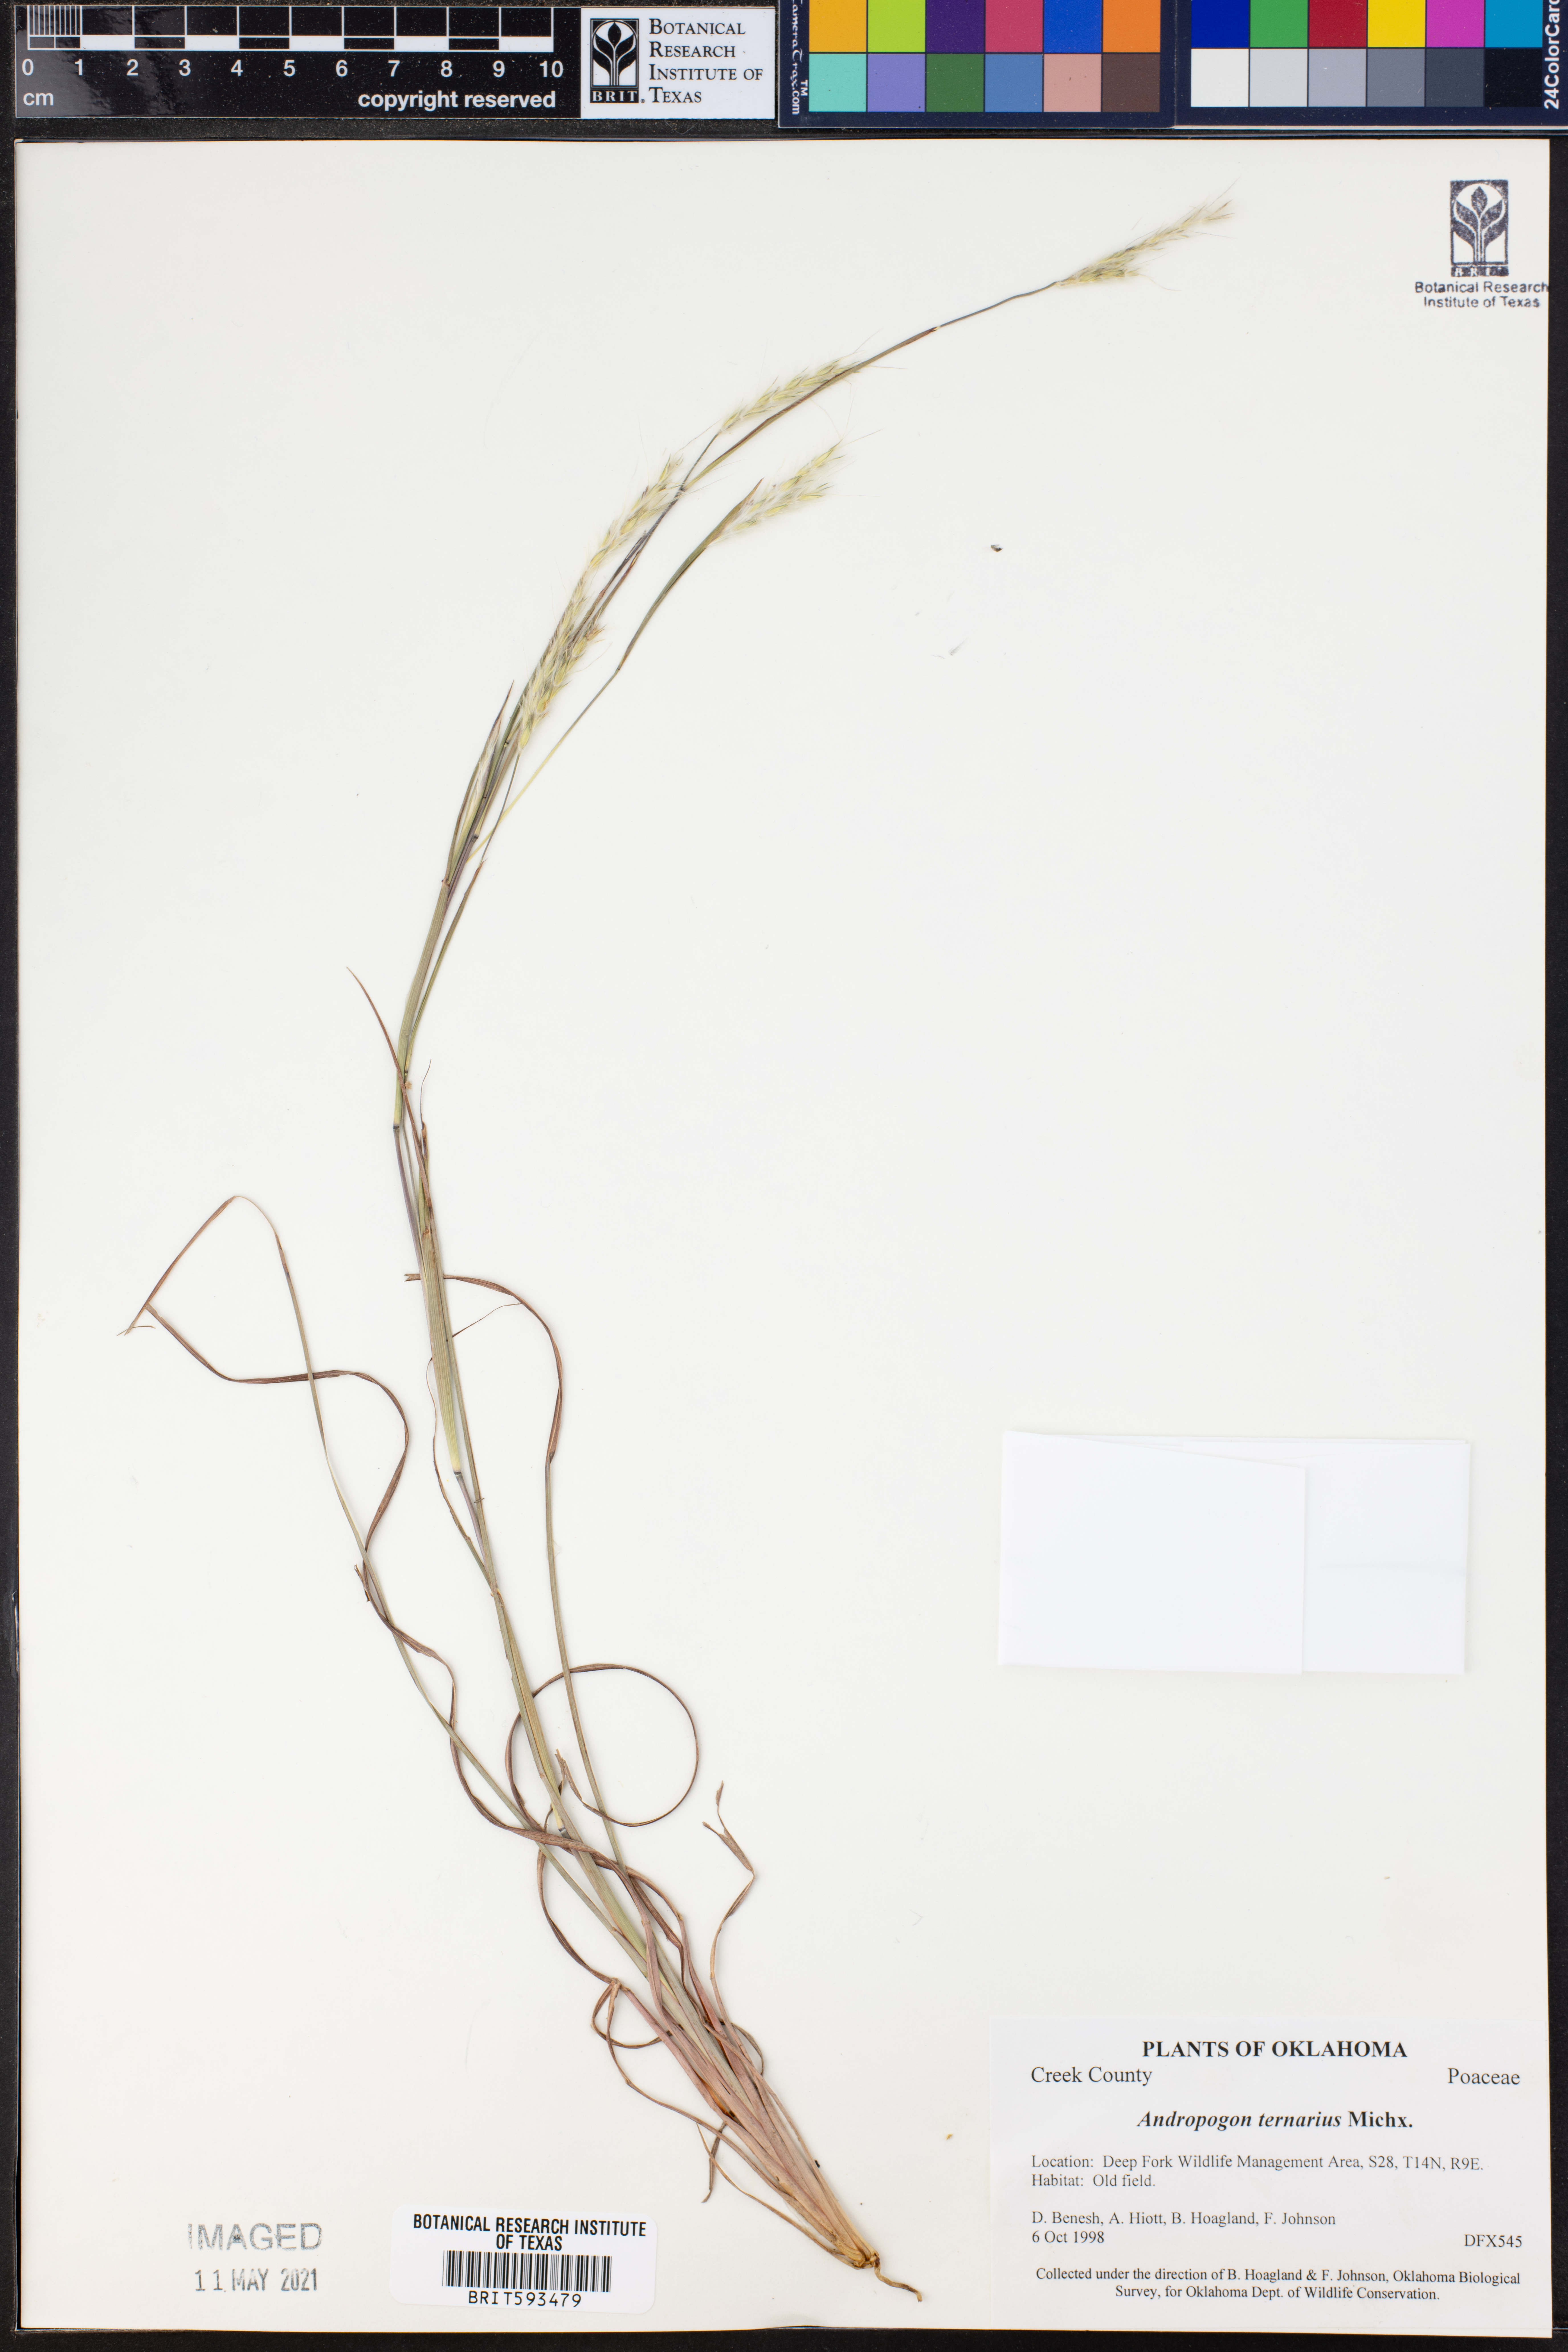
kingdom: Plantae
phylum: Tracheophyta
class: Liliopsida
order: Poales
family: Poaceae
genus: Andropogon
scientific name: Andropogon ternarius
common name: Split bluestem
